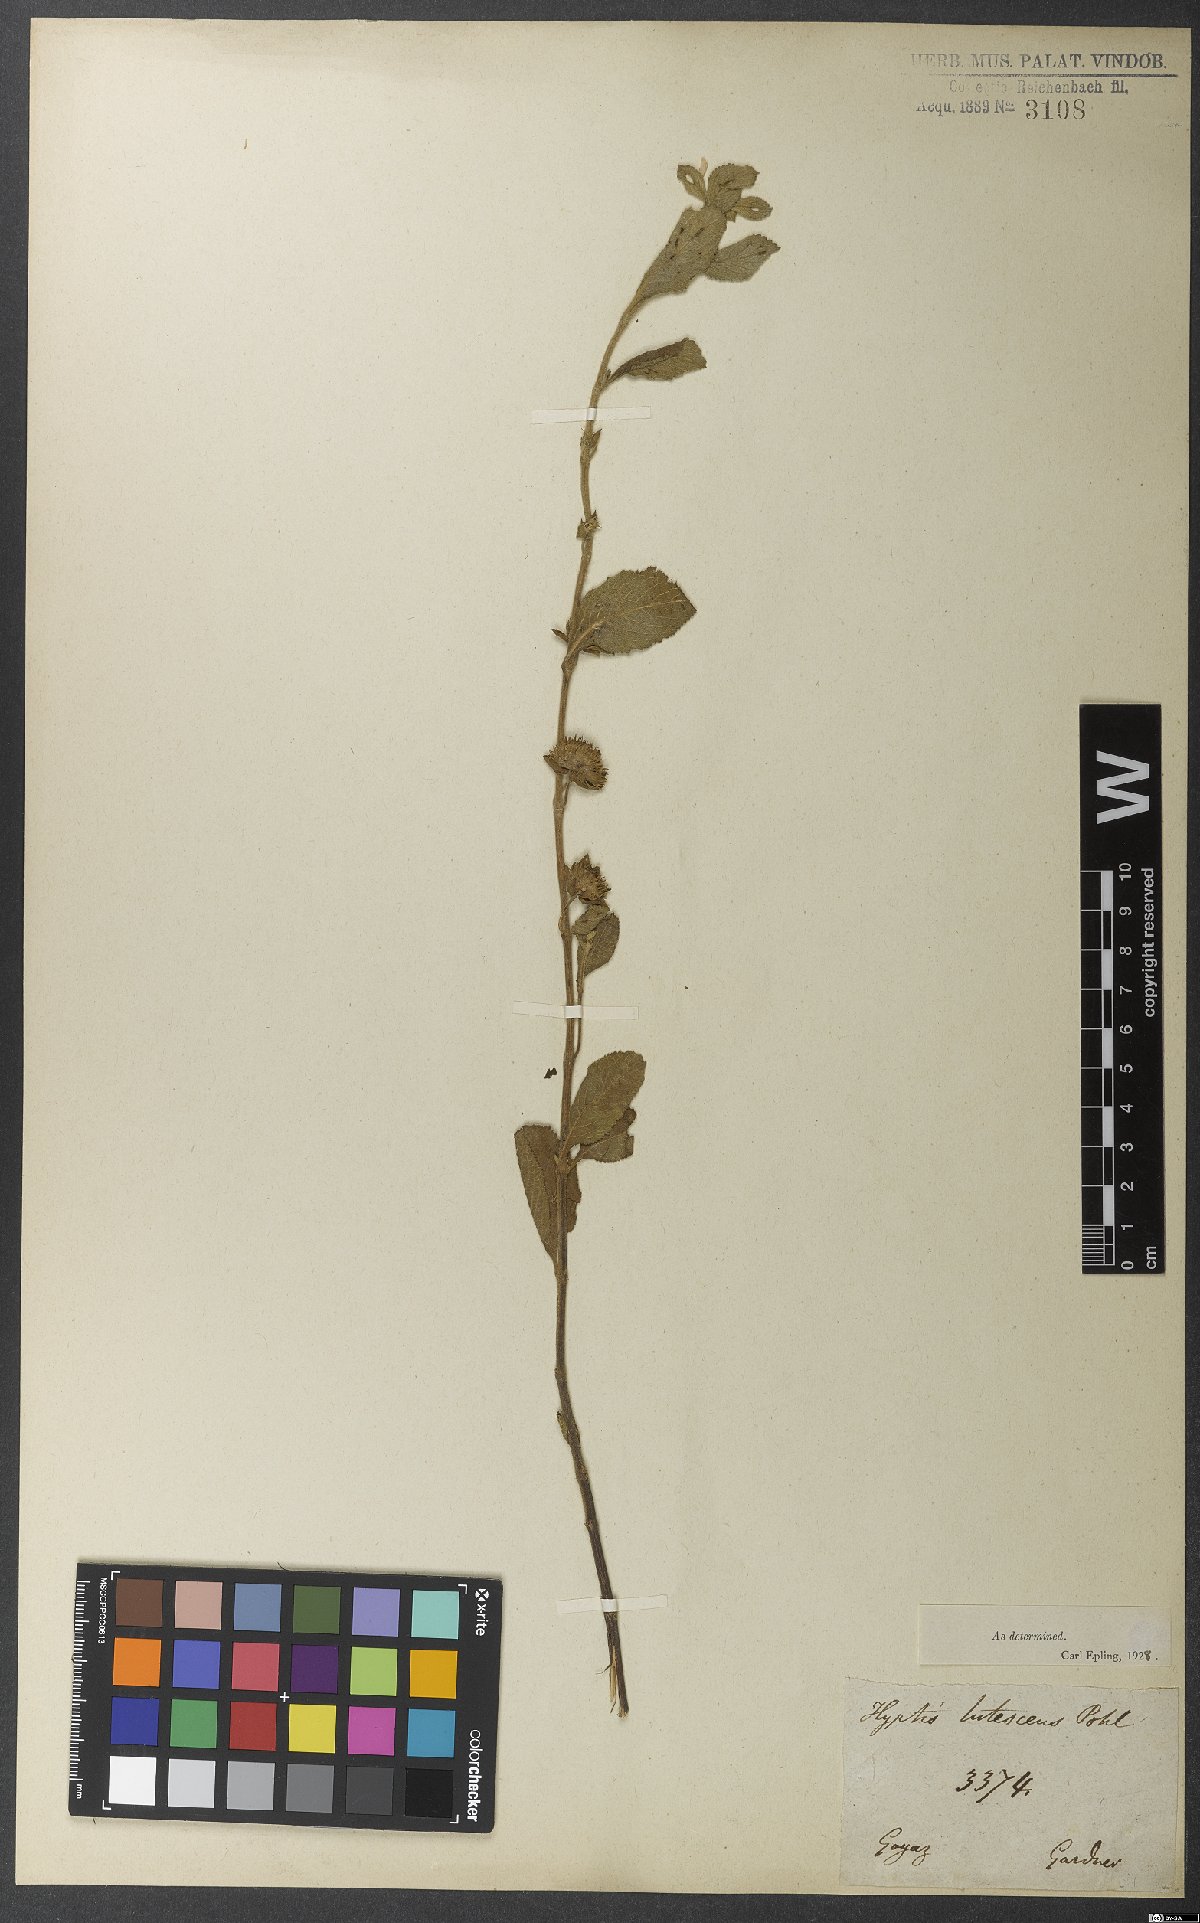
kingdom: Plantae
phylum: Tracheophyta
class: Magnoliopsida
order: Lamiales
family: Lamiaceae
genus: Hyptis
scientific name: Hyptis lutescens
